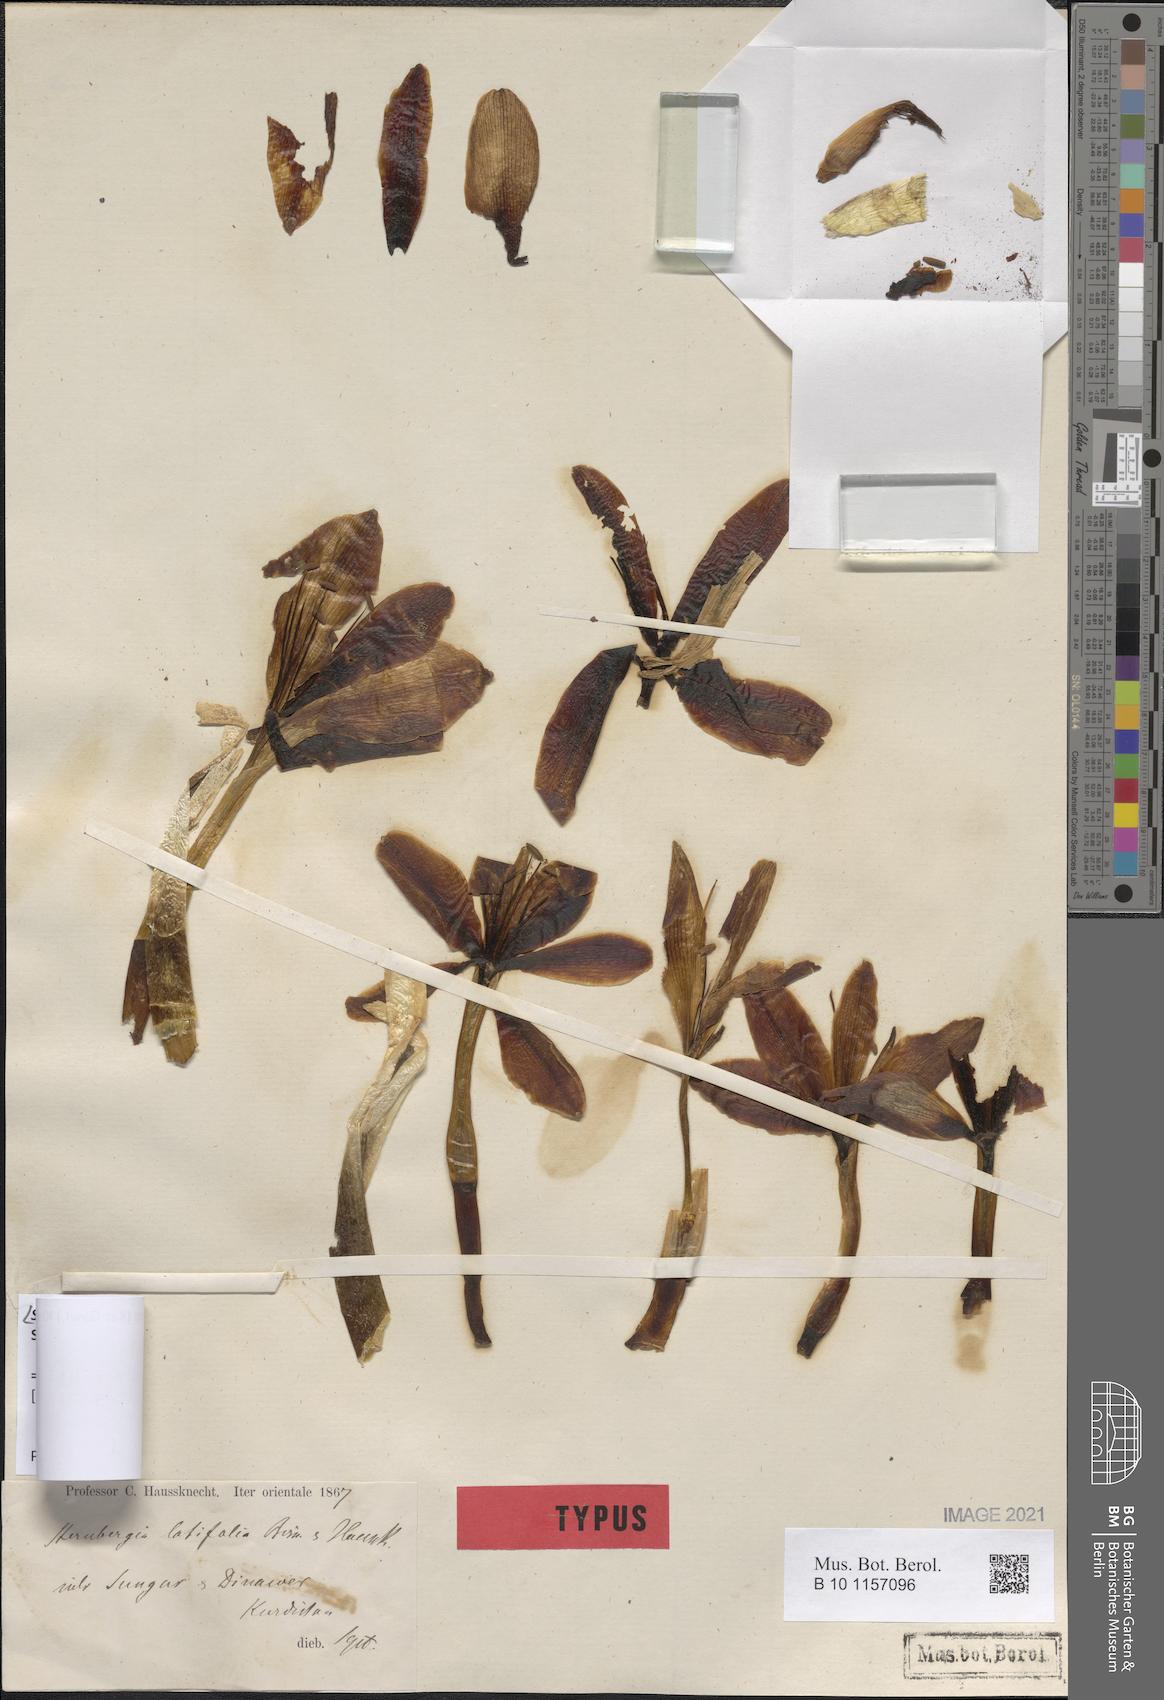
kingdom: Plantae
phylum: Tracheophyta
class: Liliopsida
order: Asparagales
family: Amaryllidaceae
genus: Sternbergia
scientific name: Sternbergia clusiana
